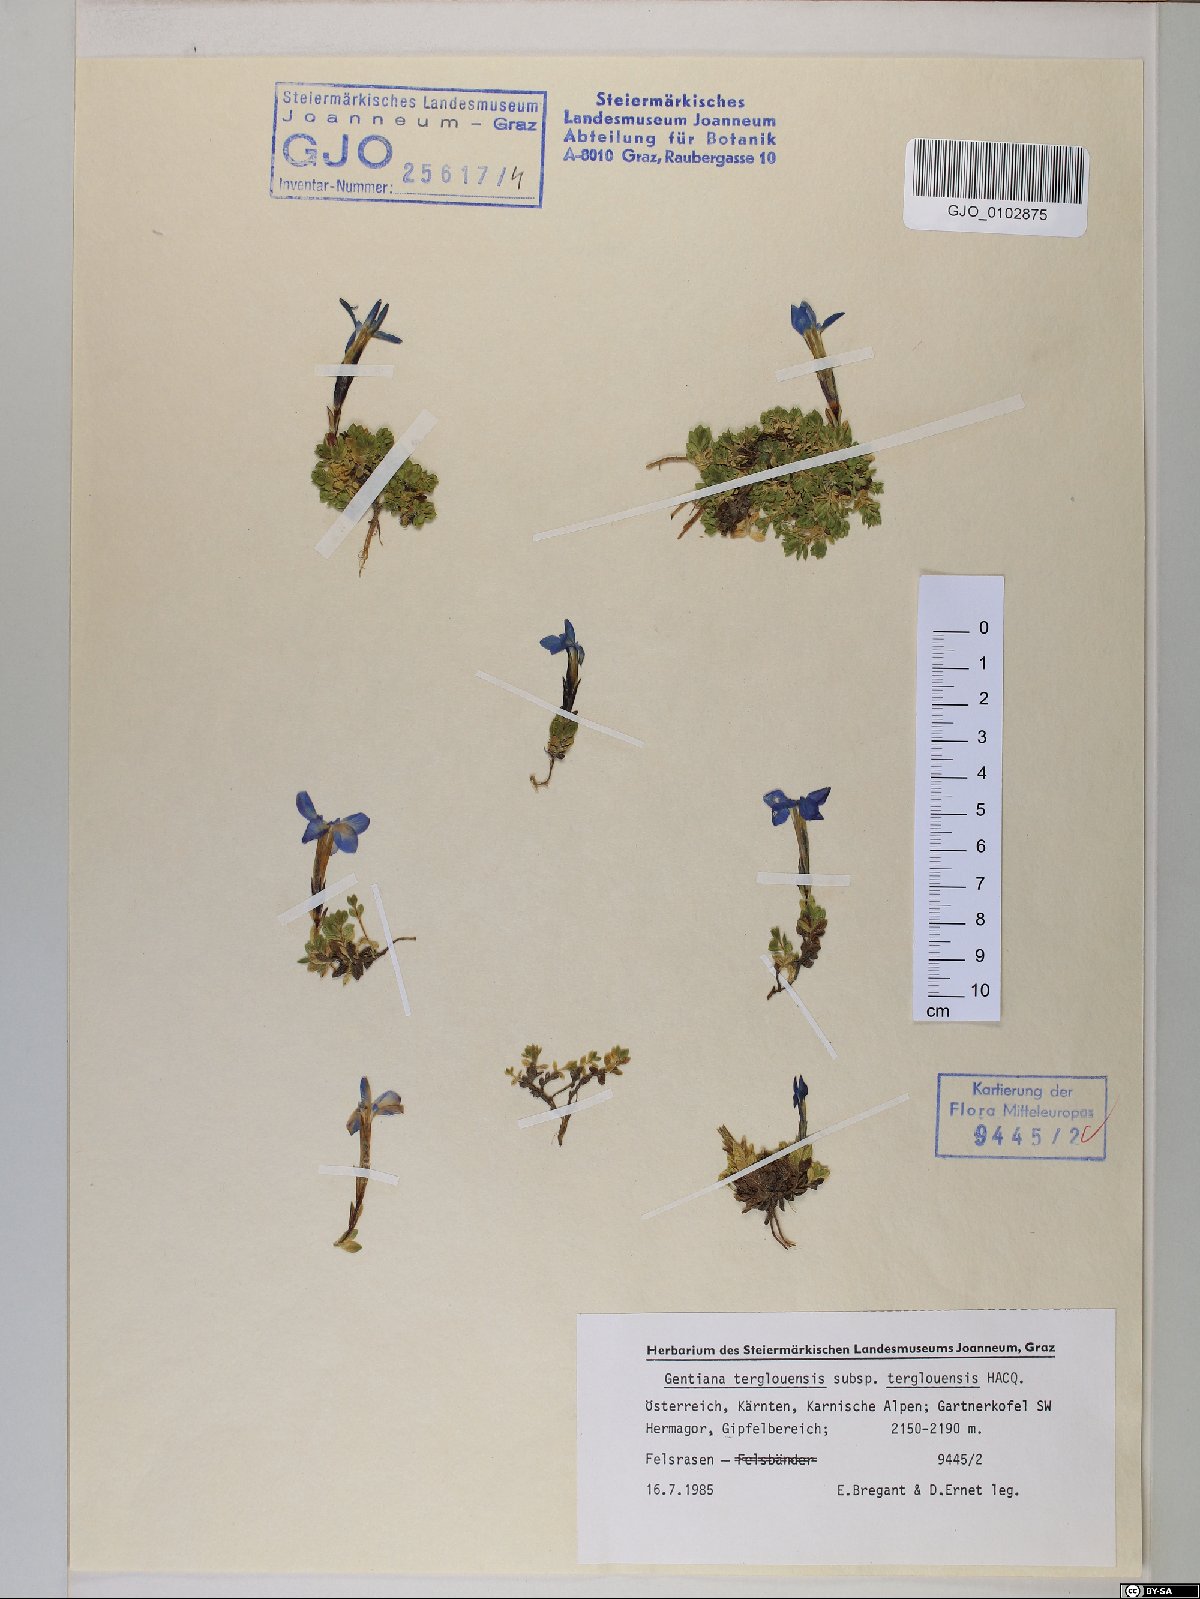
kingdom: Plantae
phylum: Tracheophyta
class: Magnoliopsida
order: Gentianales
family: Gentianaceae
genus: Gentiana
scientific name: Gentiana terglouensis
